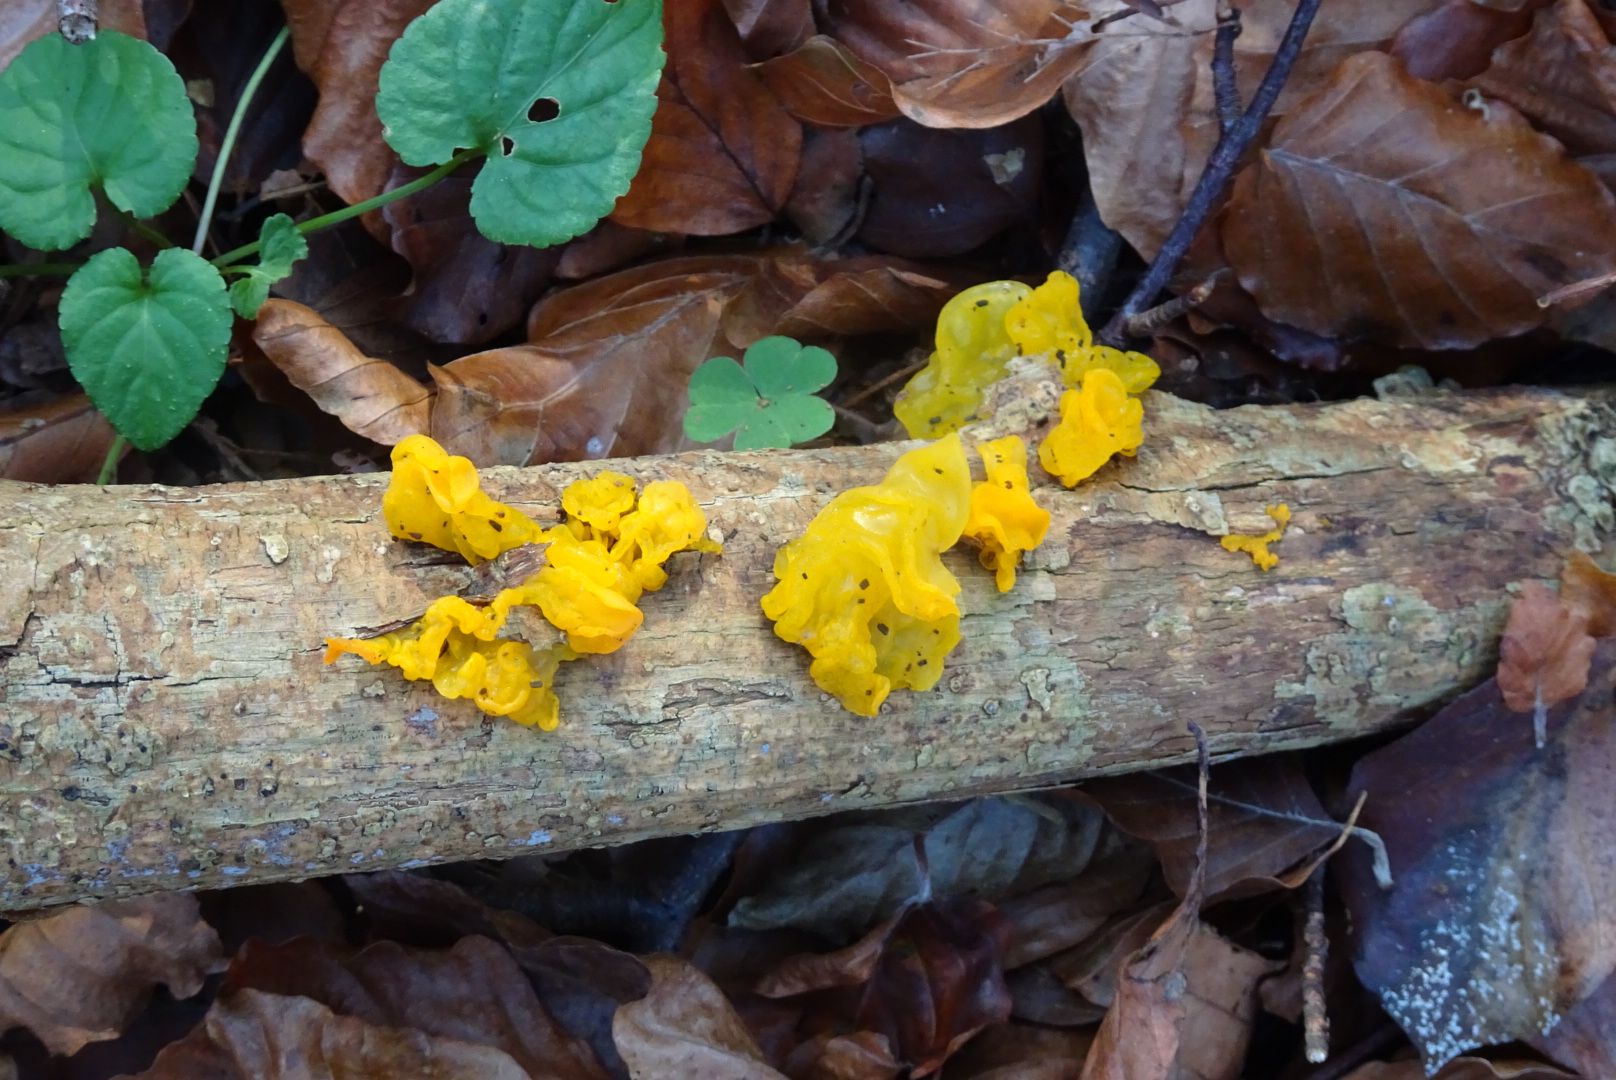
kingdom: Fungi
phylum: Basidiomycota
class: Tremellomycetes
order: Tremellales
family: Tremellaceae
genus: Tremella
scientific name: Tremella mesenterica
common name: gul bævresvamp
